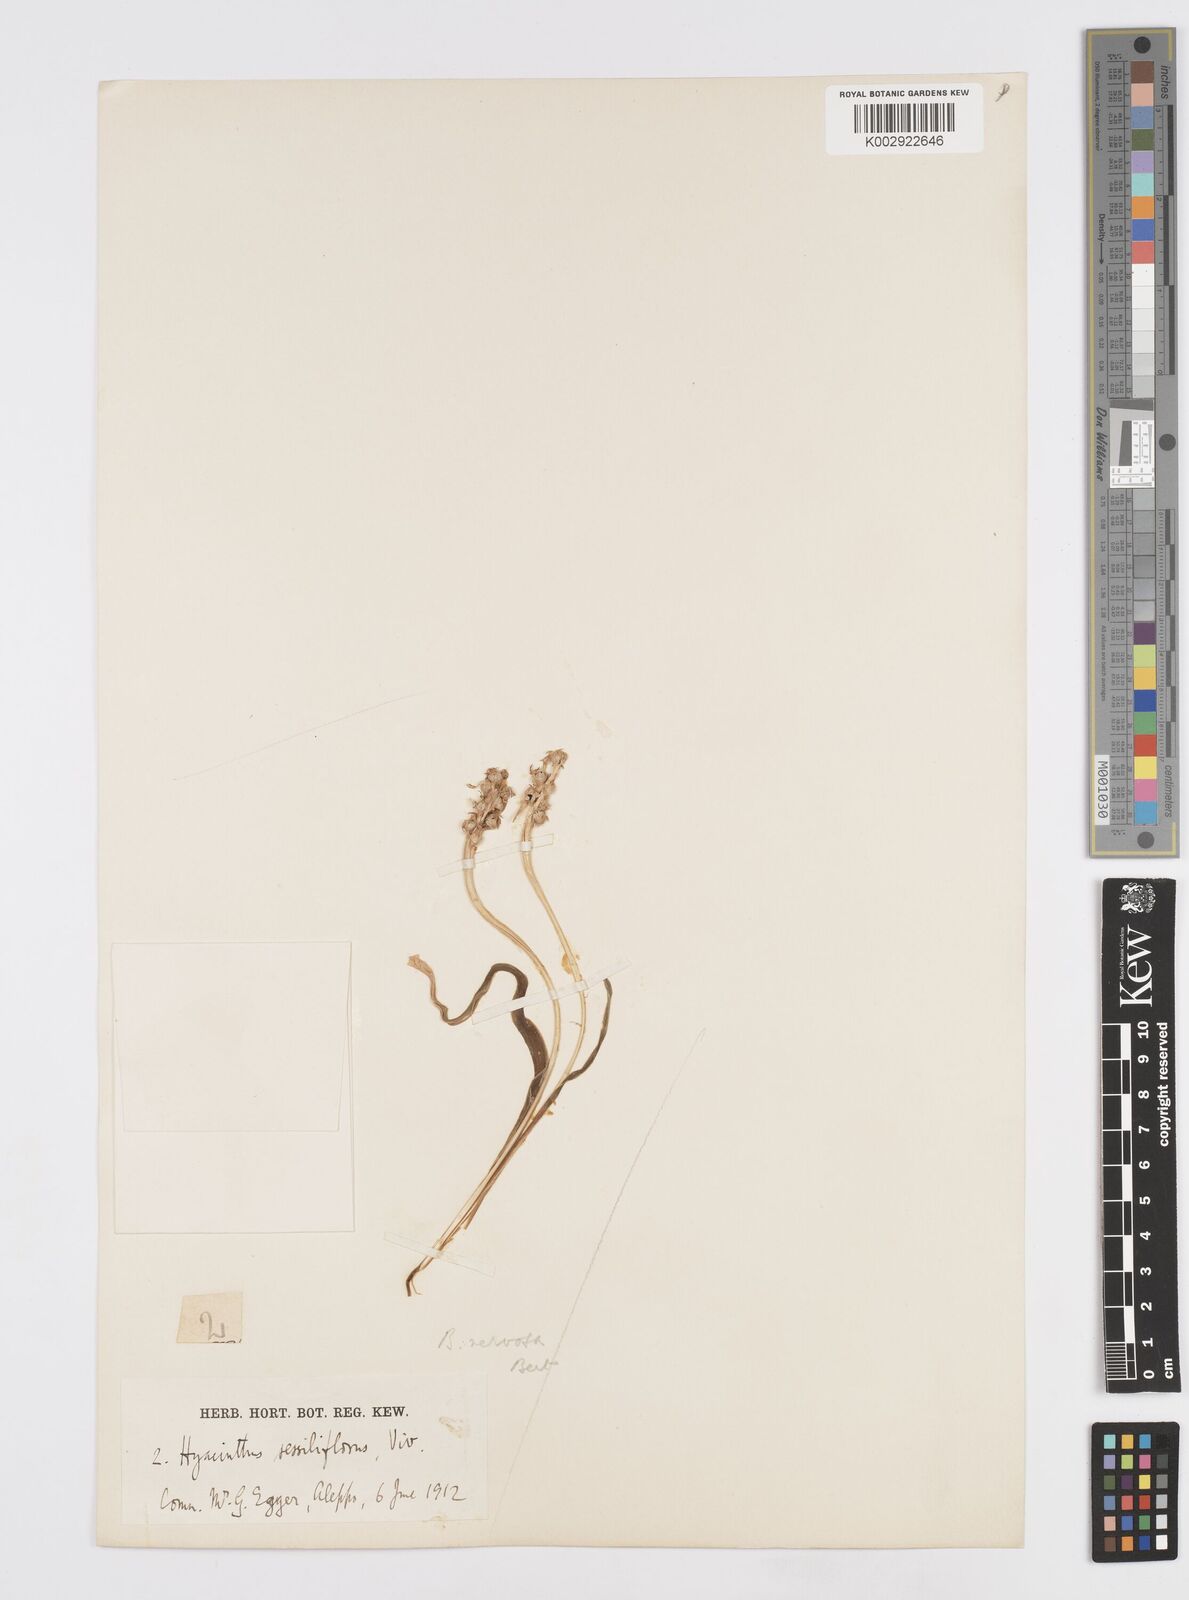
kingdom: Plantae
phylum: Tracheophyta
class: Liliopsida
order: Asparagales
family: Asparagaceae
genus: Hyacinthella
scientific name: Hyacinthella nervosa
